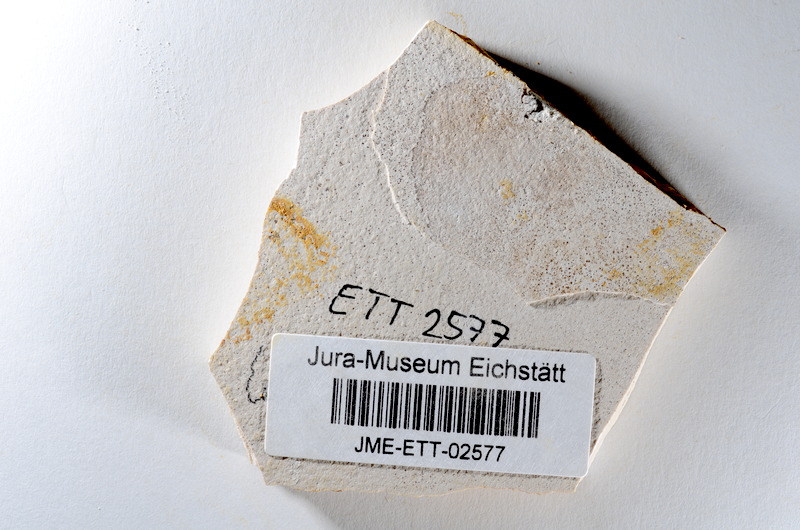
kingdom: Animalia
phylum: Chordata
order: Salmoniformes
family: Orthogonikleithridae
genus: Orthogonikleithrus
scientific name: Orthogonikleithrus hoelli
